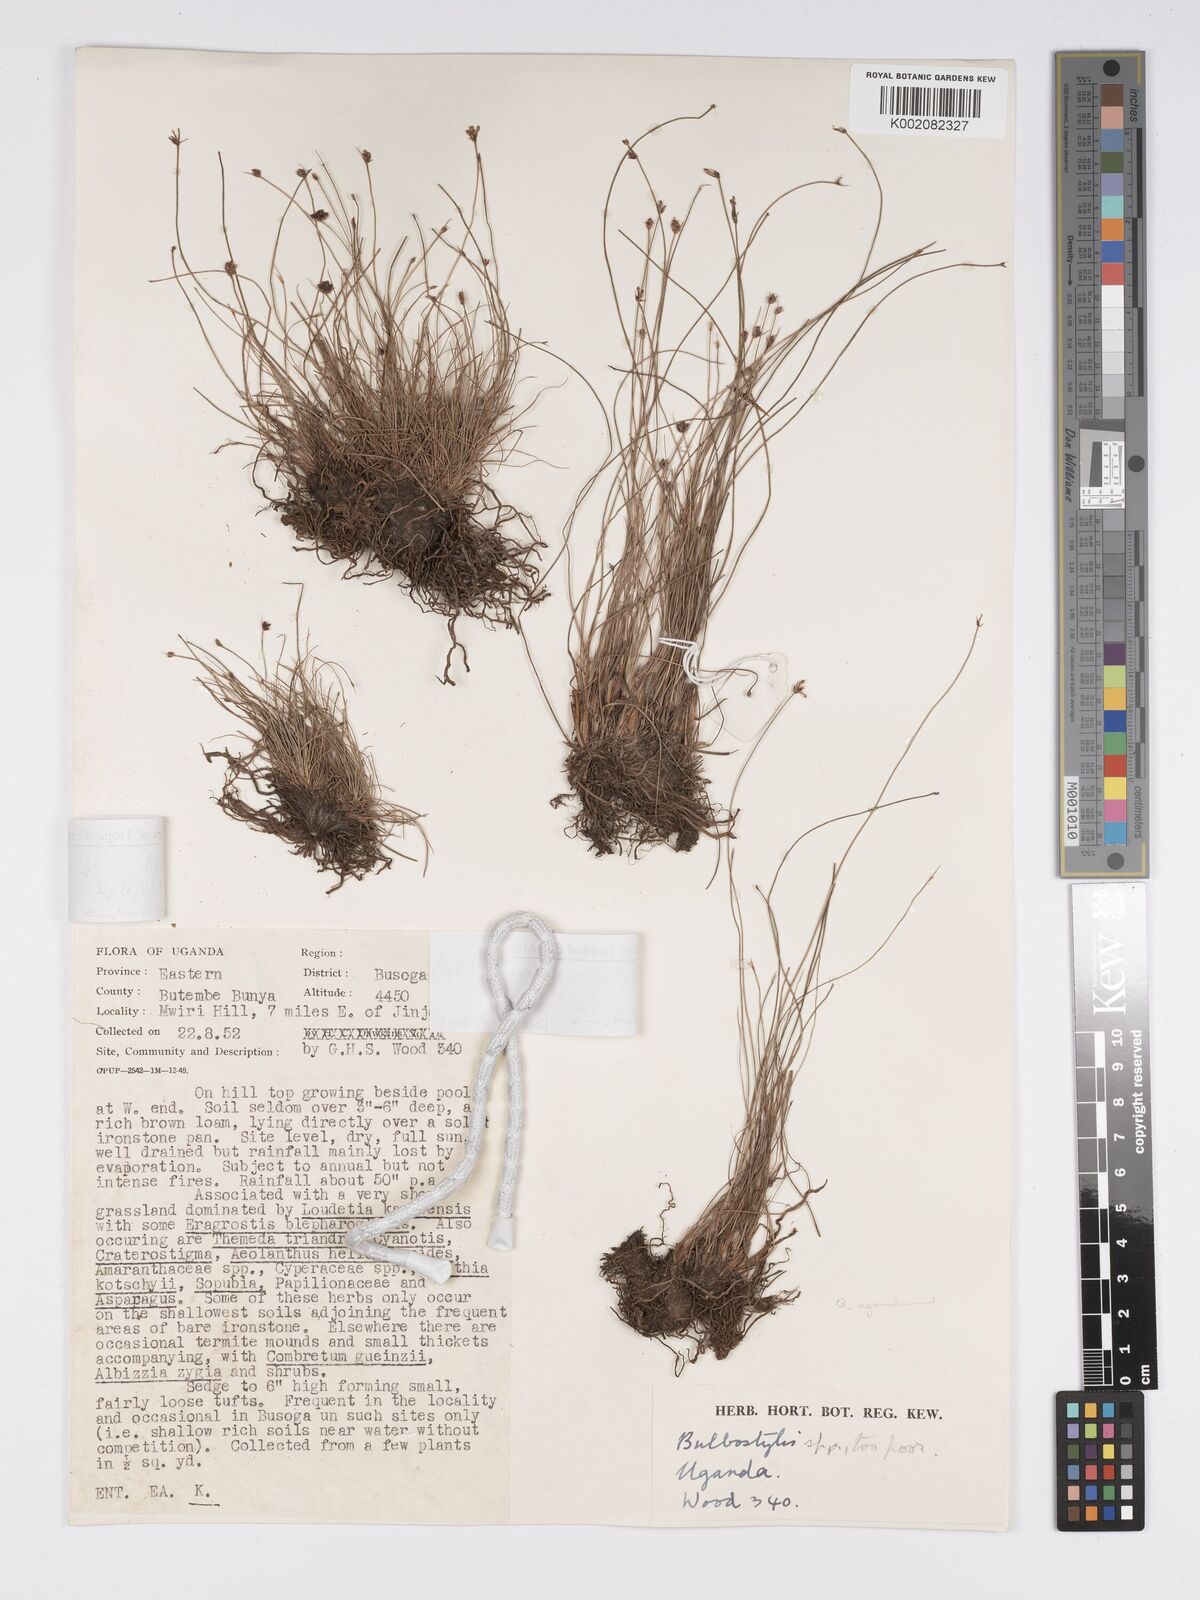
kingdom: Plantae
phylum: Tracheophyta
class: Liliopsida
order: Poales
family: Cyperaceae
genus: Bulbostylis
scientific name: Bulbostylis ugandensis
